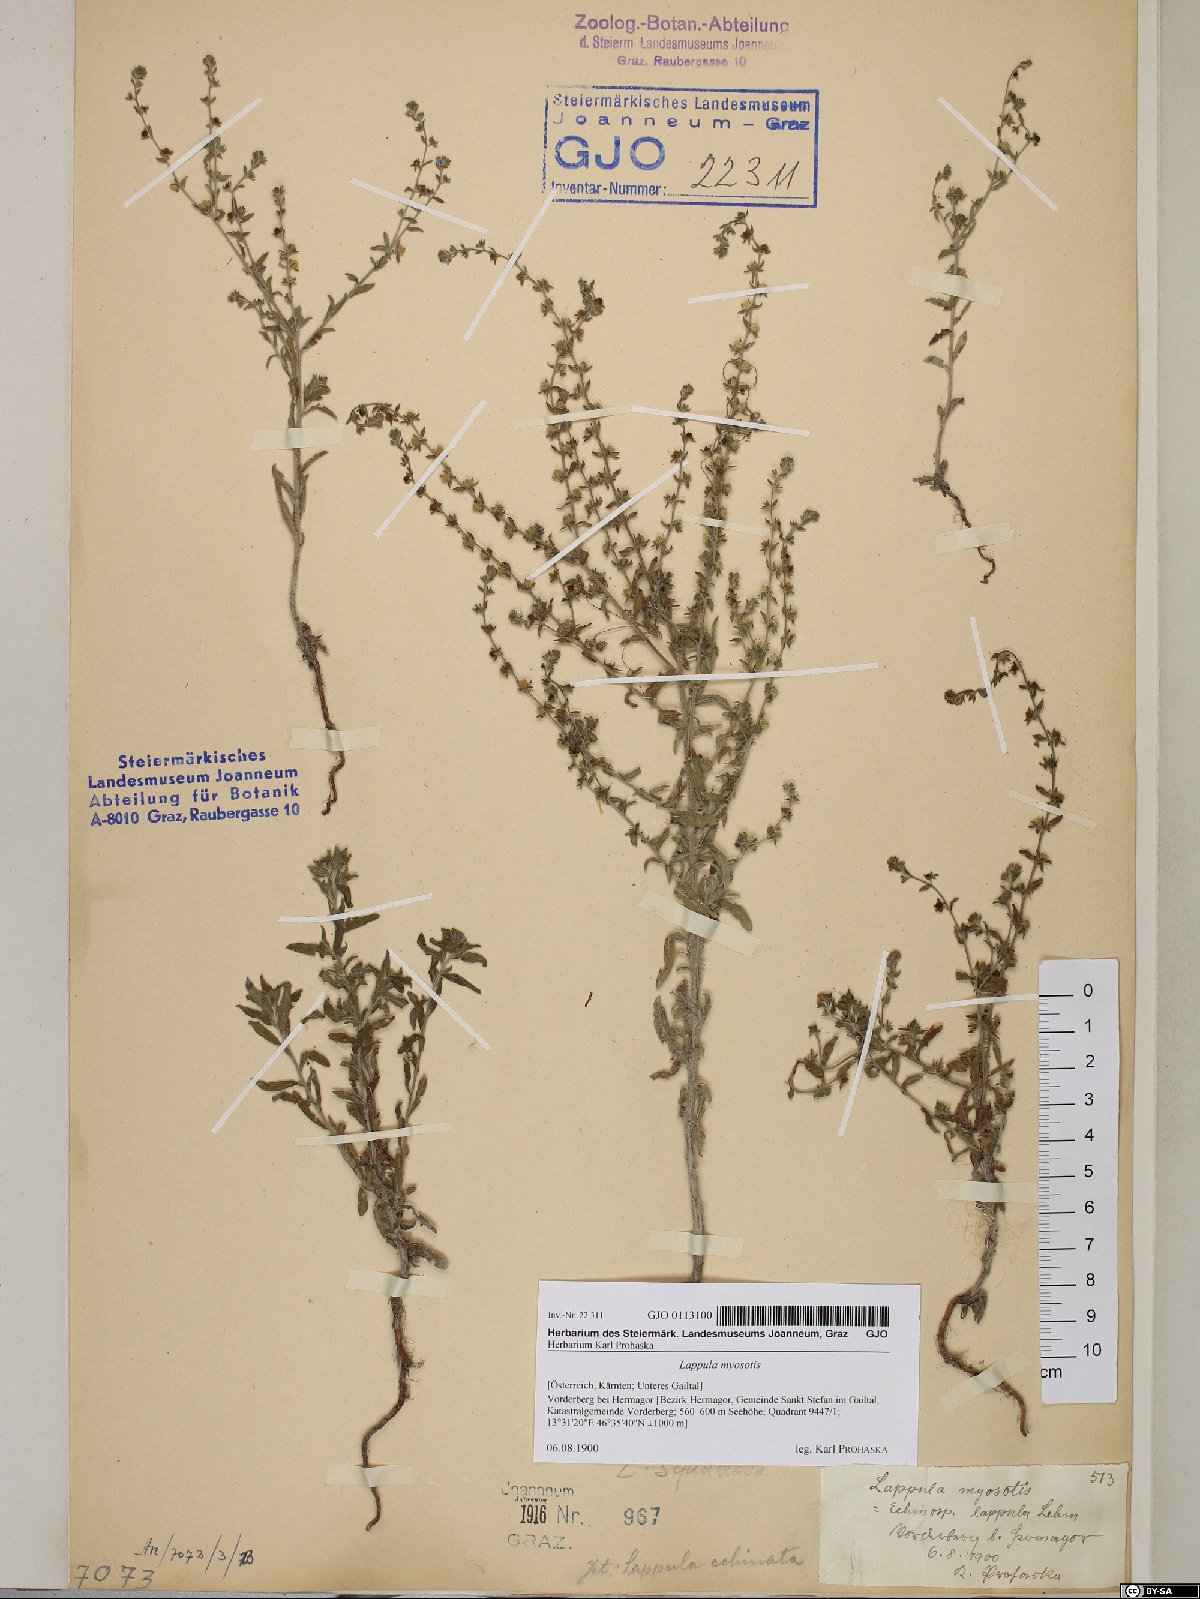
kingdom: Plantae
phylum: Tracheophyta
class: Magnoliopsida
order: Boraginales
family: Boraginaceae
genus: Lappula
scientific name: Lappula squarrosa
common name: European stickseed
